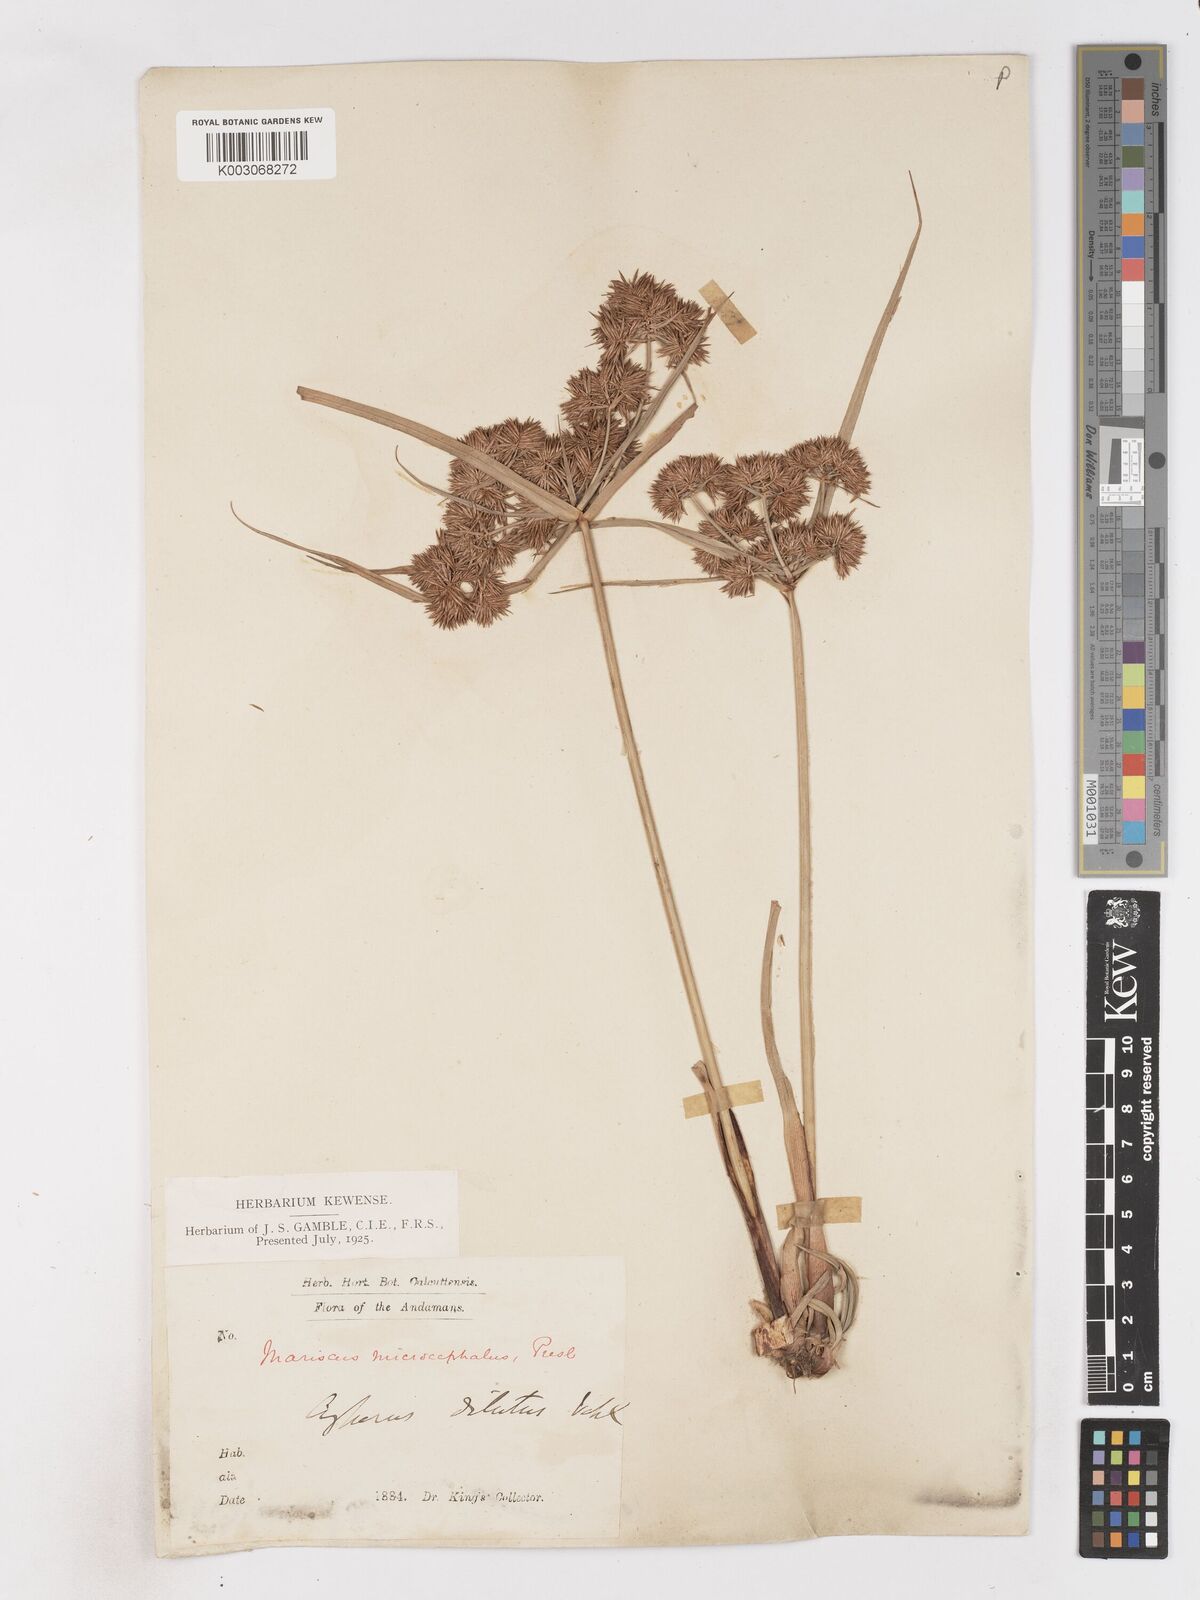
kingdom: Plantae
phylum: Tracheophyta
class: Liliopsida
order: Poales
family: Cyperaceae
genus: Cyperus
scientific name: Cyperus compactus
